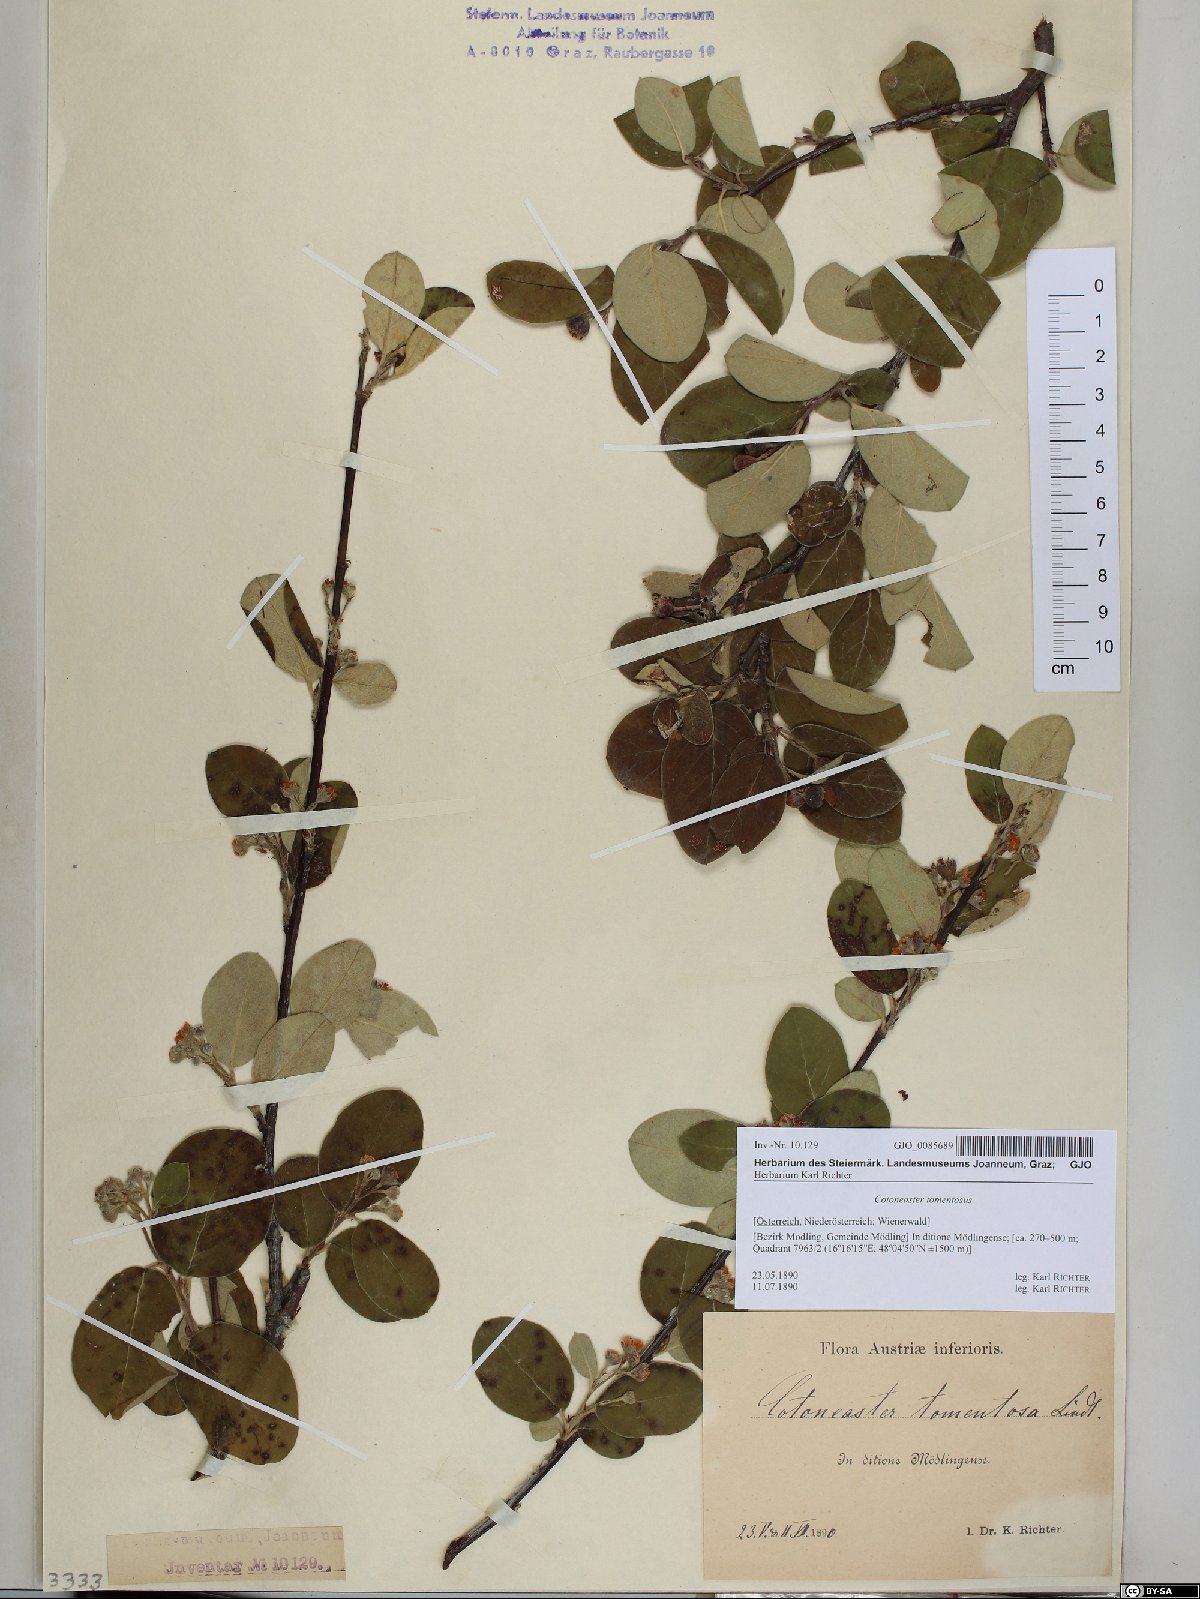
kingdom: Plantae
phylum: Tracheophyta
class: Magnoliopsida
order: Rosales
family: Rosaceae
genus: Cotoneaster
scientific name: Cotoneaster tomentosus
